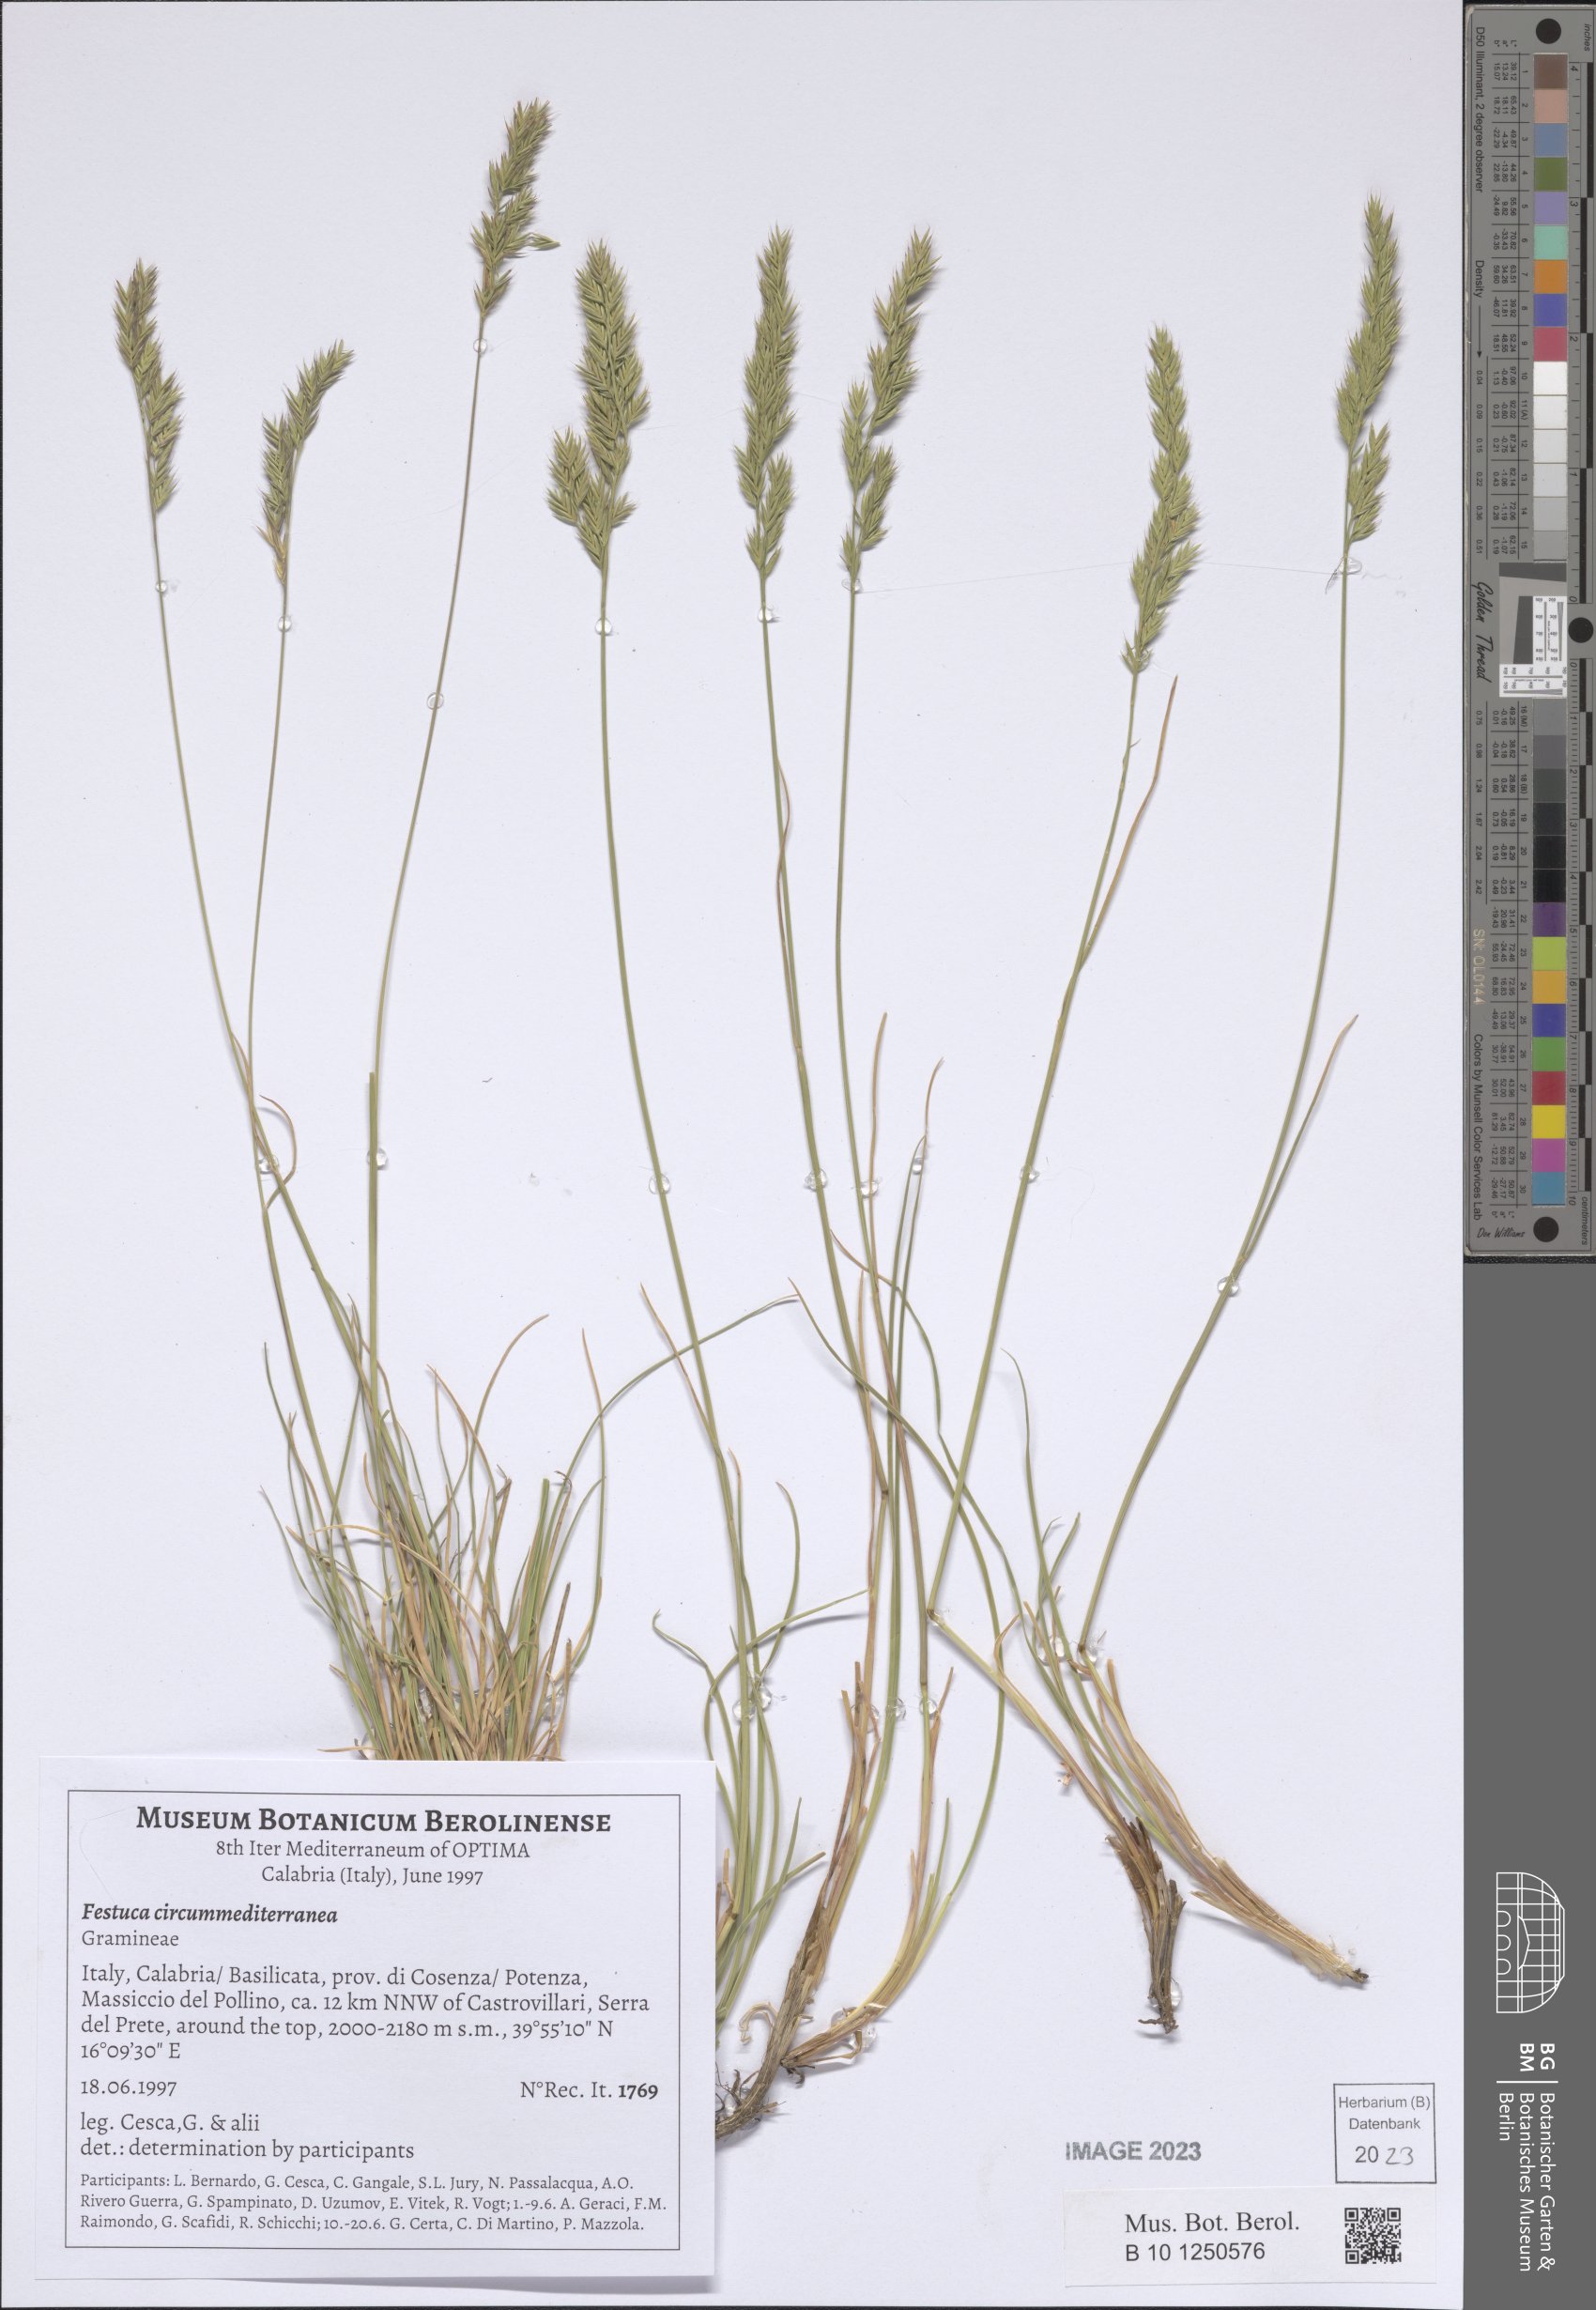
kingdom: Plantae
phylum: Tracheophyta
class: Liliopsida
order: Poales
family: Poaceae
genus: Festuca
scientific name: Festuca circummediterranea
